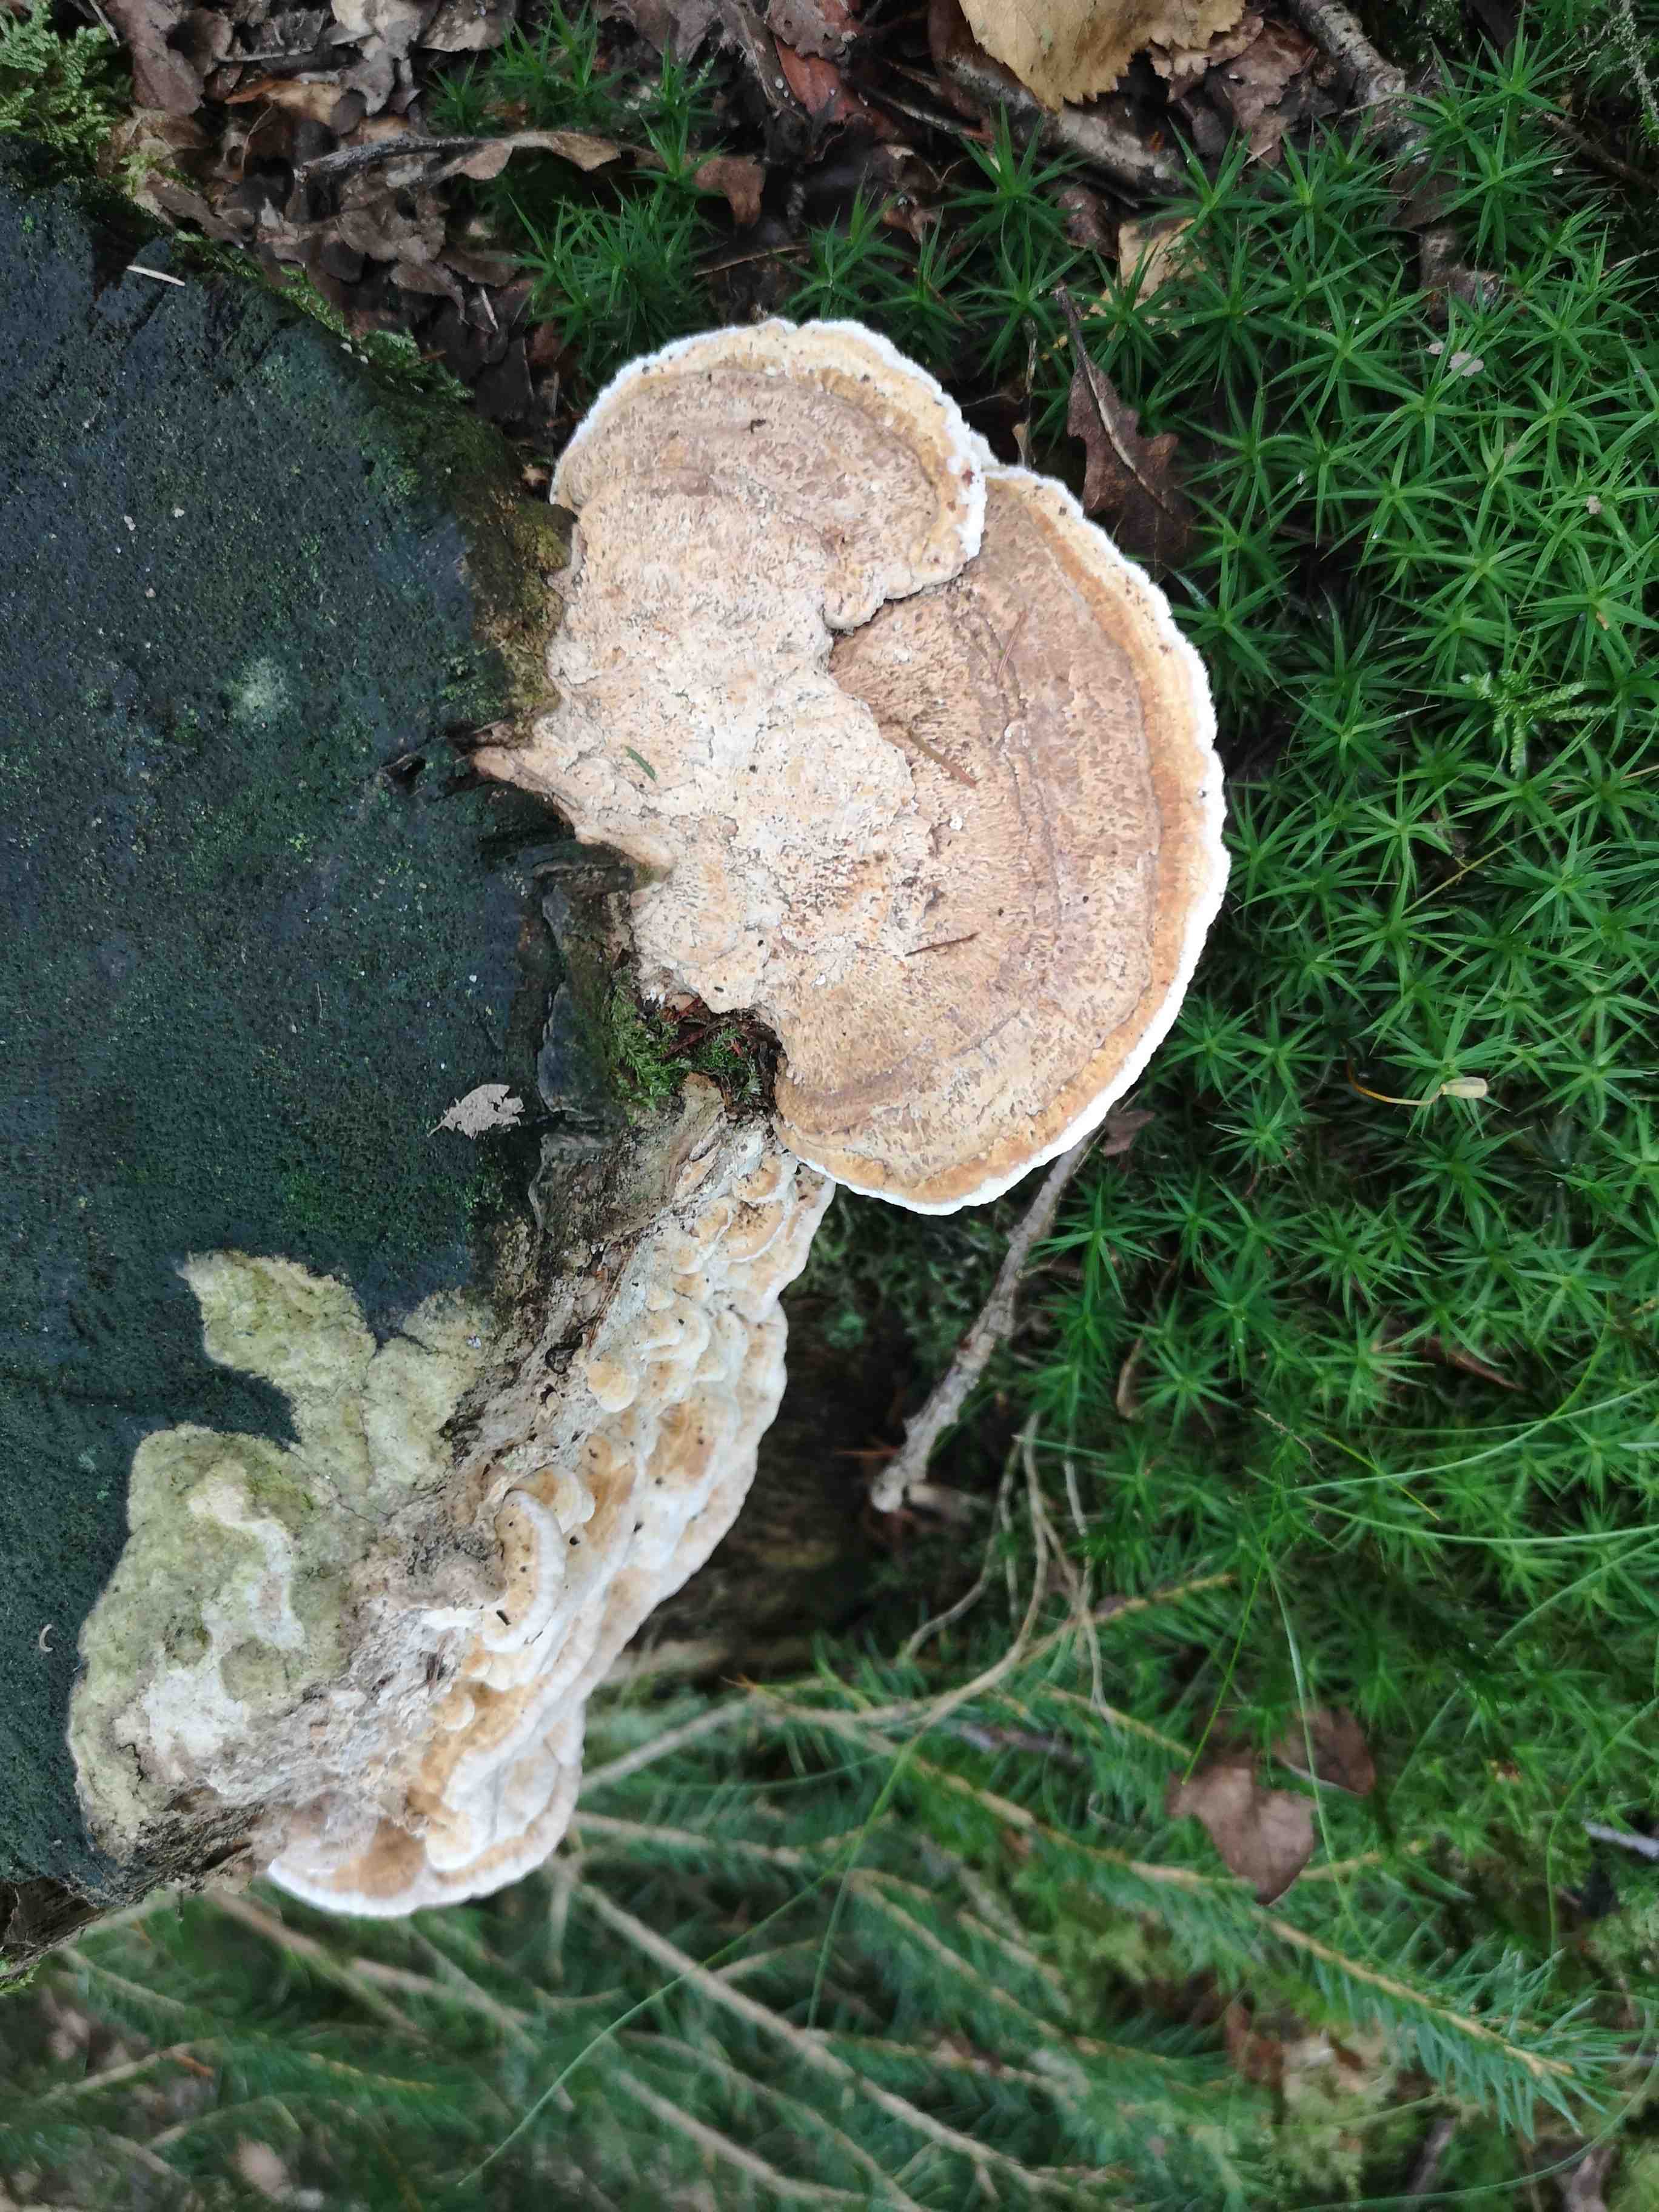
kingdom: Fungi
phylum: Basidiomycota
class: Agaricomycetes
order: Polyporales
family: Fomitopsidaceae
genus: Daedalea
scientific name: Daedalea quercina
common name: ege-labyrintsvamp
